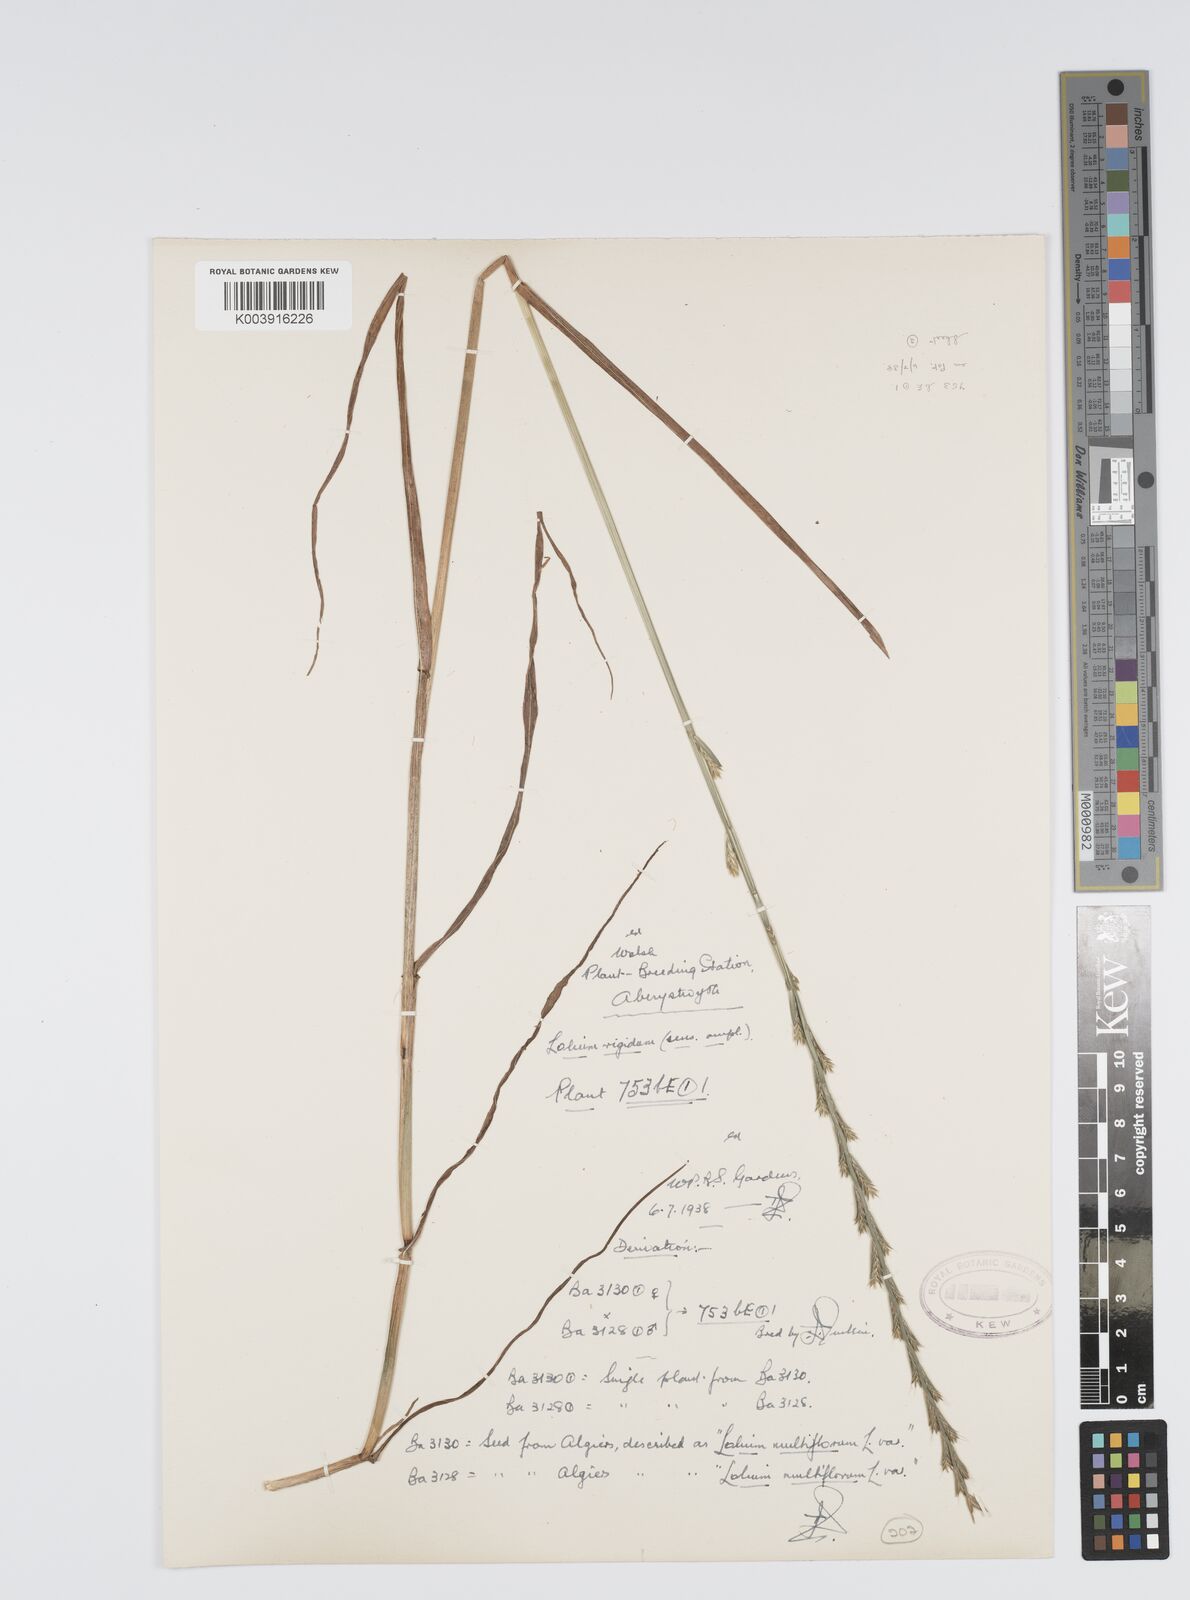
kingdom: Plantae
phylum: Tracheophyta
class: Liliopsida
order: Poales
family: Poaceae
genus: Lolium
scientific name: Lolium rigidum
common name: Wimmera ryegrass
